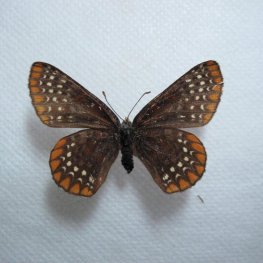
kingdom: Animalia
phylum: Arthropoda
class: Insecta
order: Lepidoptera
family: Nymphalidae
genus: Euphydryas
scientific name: Euphydryas phaeton
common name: Baltimore Checkerspot
